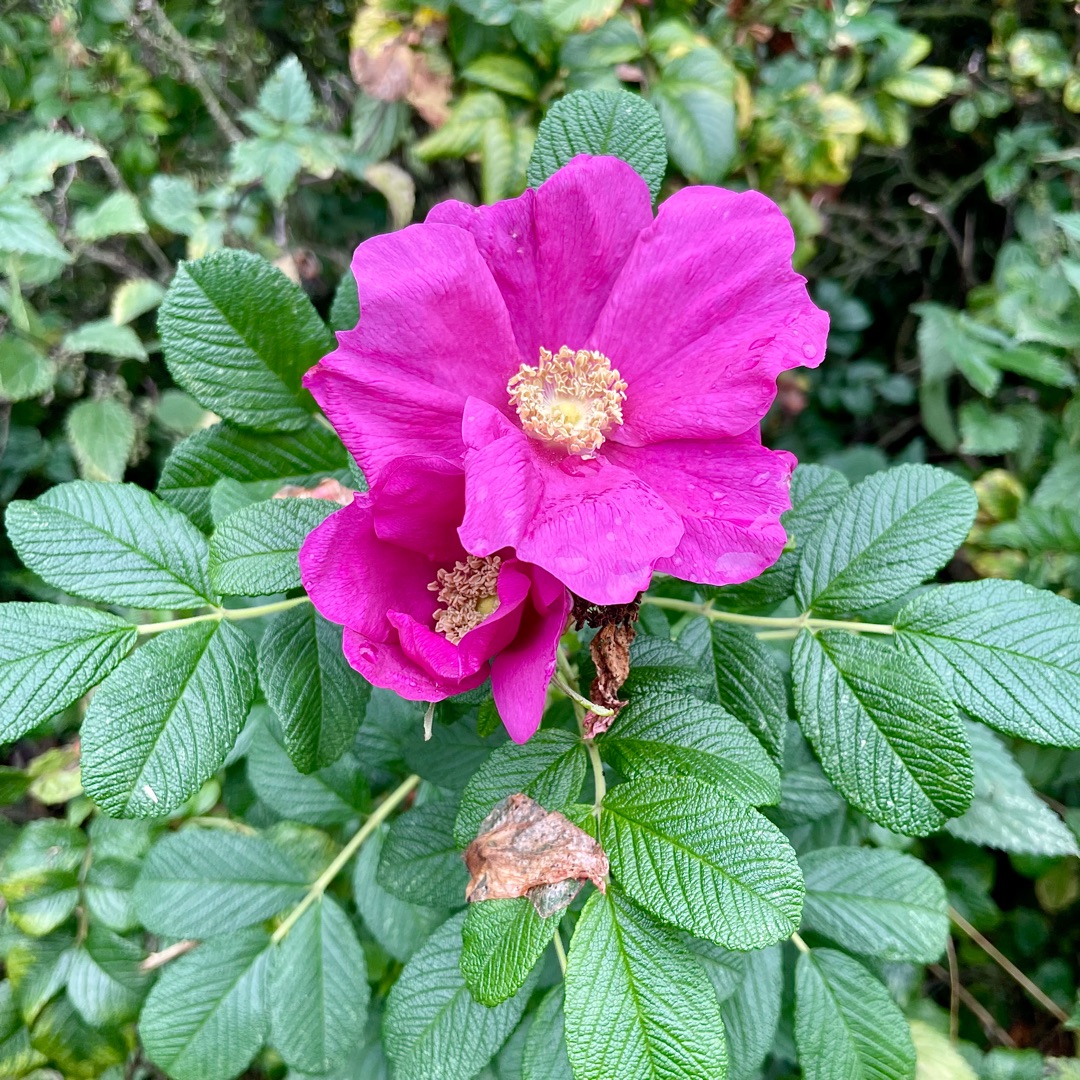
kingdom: Plantae
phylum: Tracheophyta
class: Magnoliopsida
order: Rosales
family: Rosaceae
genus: Rosa
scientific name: Rosa rugosa
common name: Rynket rose
